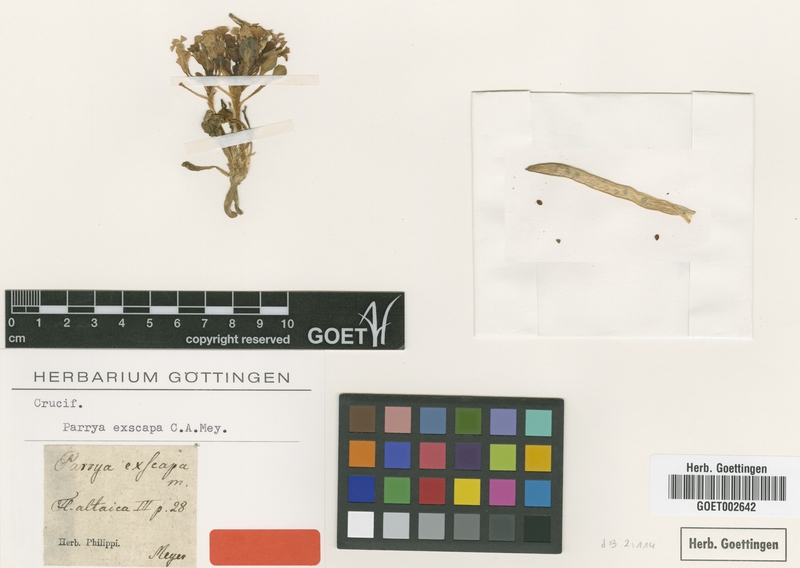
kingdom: Plantae
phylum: Tracheophyta
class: Magnoliopsida
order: Brassicales
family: Brassicaceae
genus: Leiospora
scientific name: Leiospora exscapa
